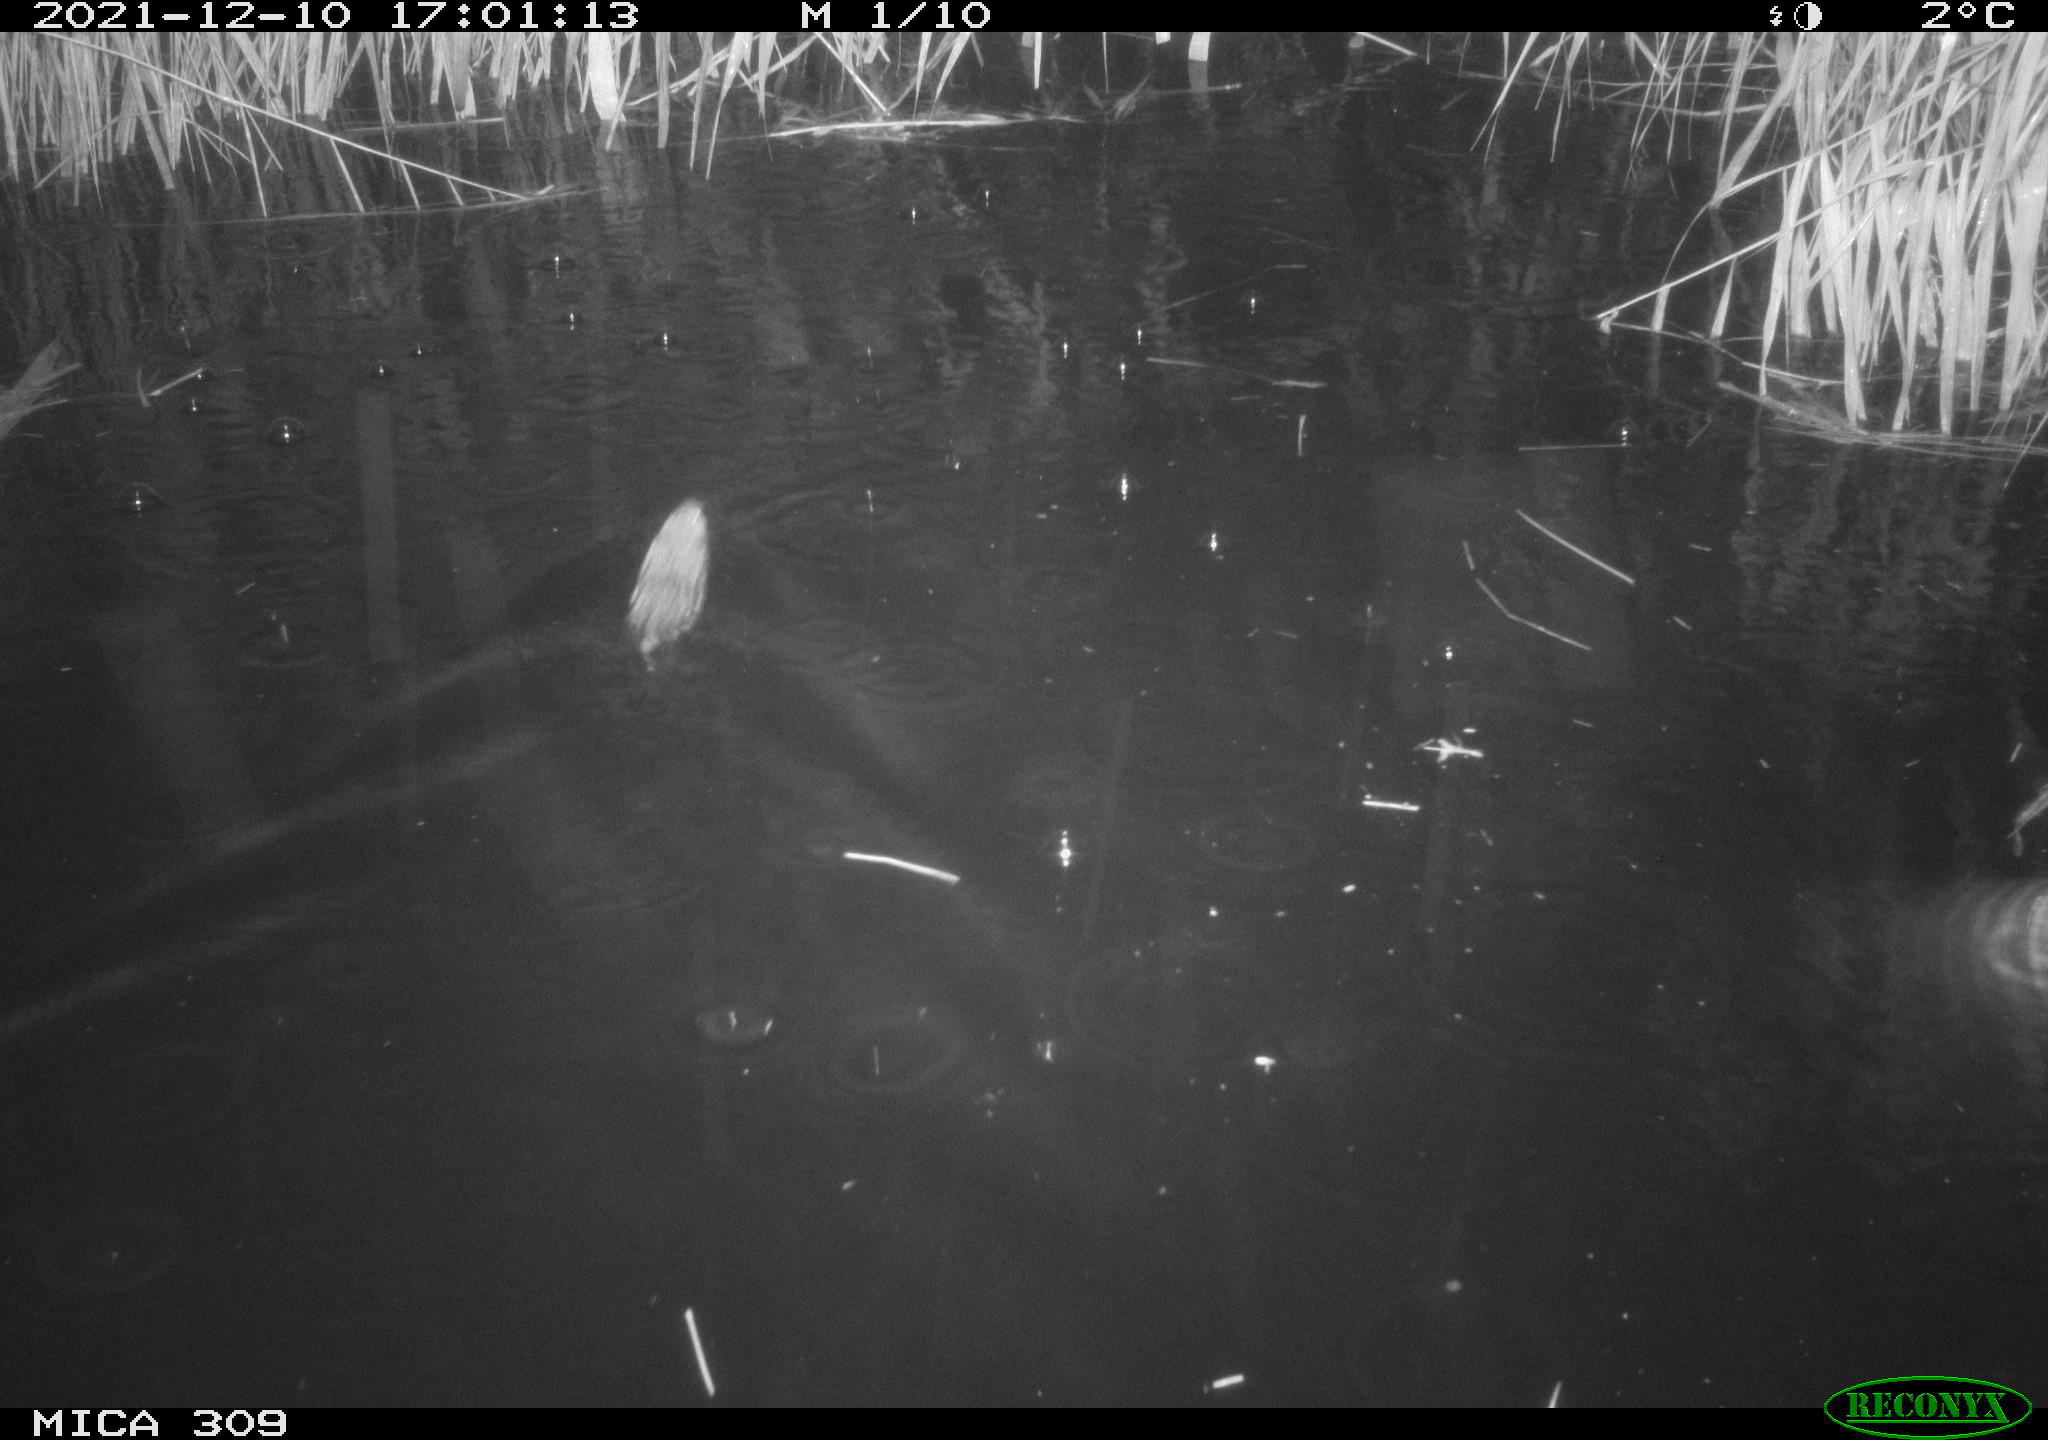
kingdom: Animalia
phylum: Chordata
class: Mammalia
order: Rodentia
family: Muridae
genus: Rattus
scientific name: Rattus norvegicus
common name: Brown rat
